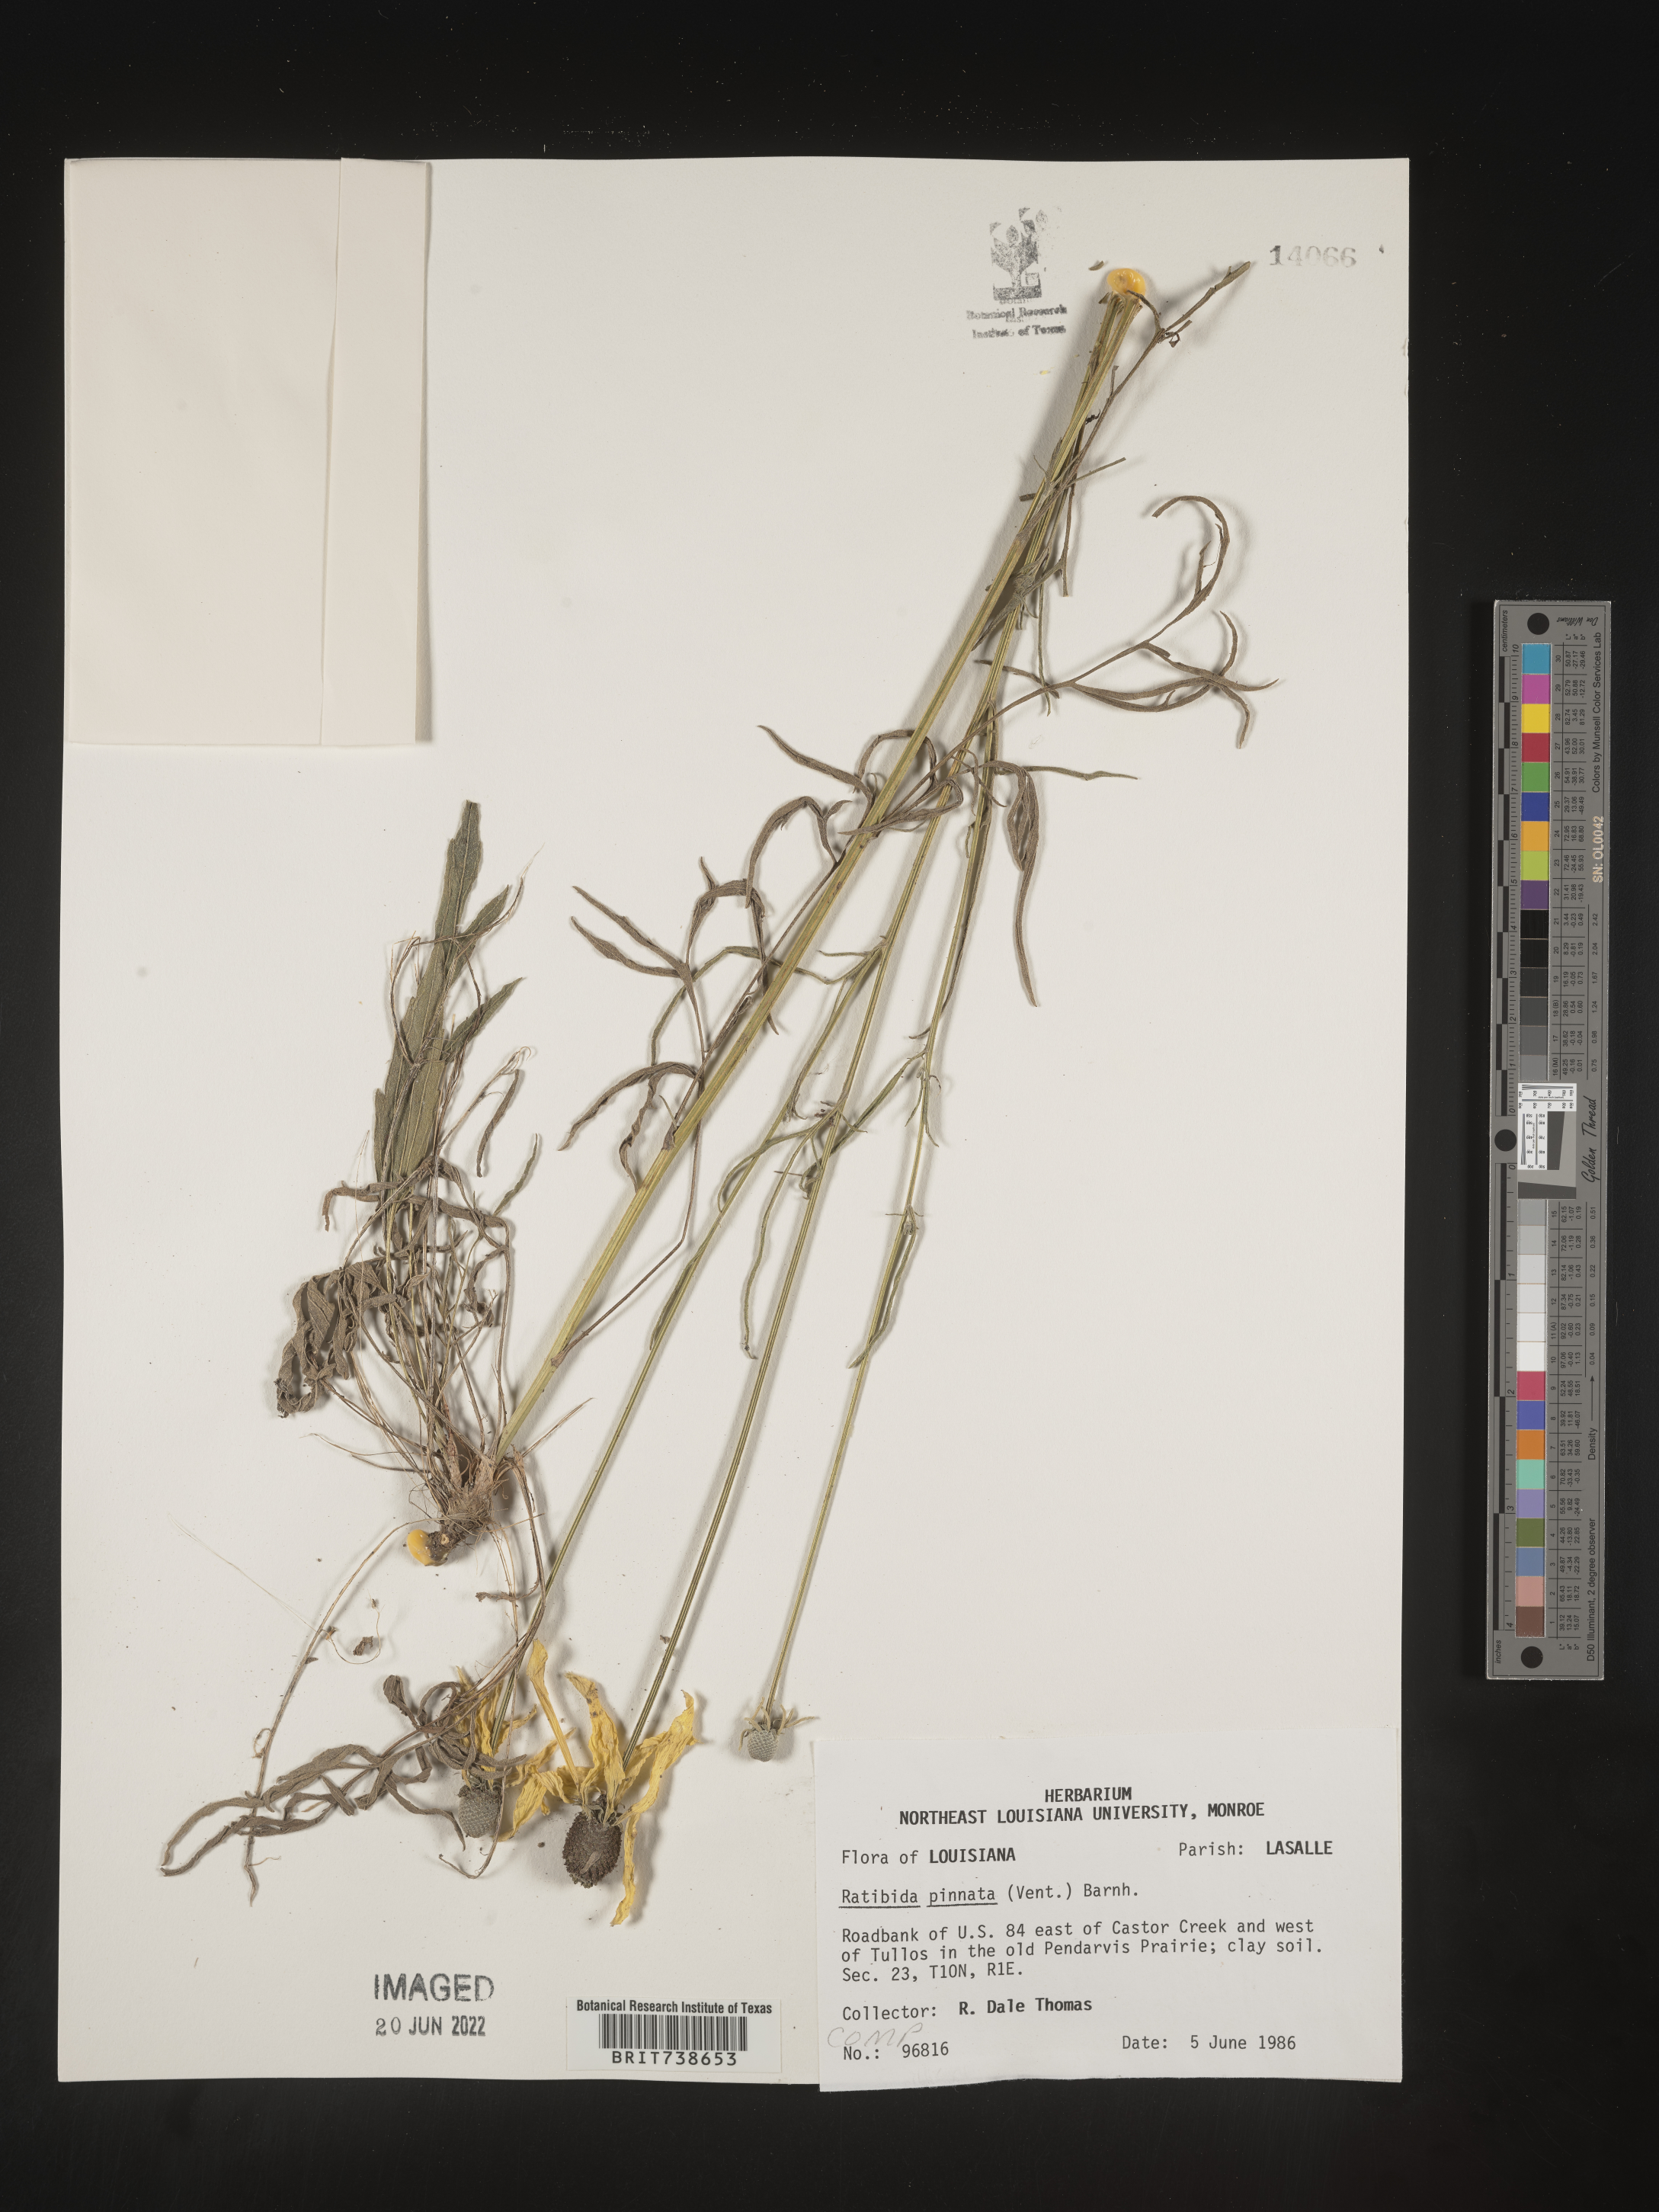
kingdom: Plantae
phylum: Tracheophyta
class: Magnoliopsida
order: Asterales
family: Asteraceae
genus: Ratibida
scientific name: Ratibida pinnata
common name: Drooping prairie-coneflower
